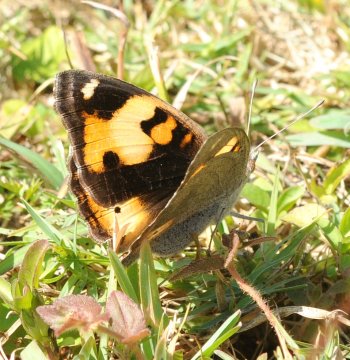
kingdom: Animalia
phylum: Arthropoda
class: Insecta
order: Lepidoptera
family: Nymphalidae
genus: Junonia
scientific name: Junonia hierta
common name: Yellow Pansy
